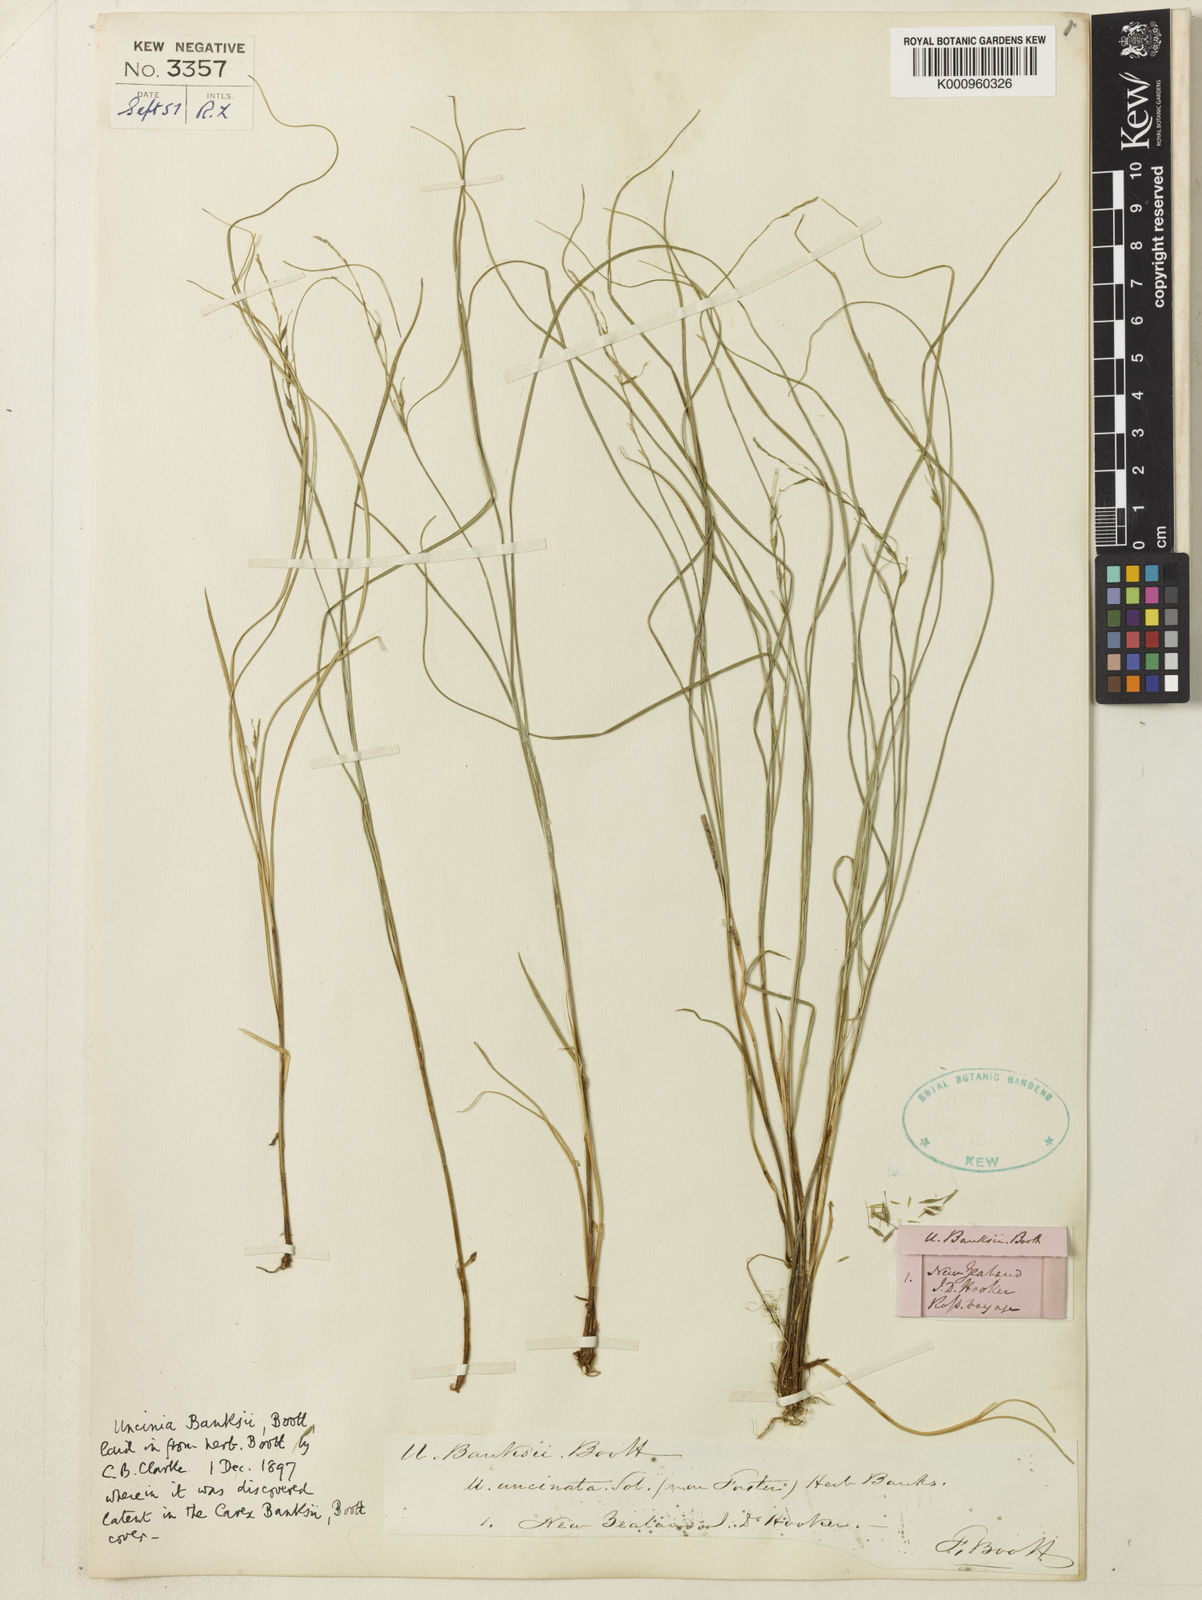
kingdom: Plantae
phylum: Tracheophyta
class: Liliopsida
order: Poales
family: Cyperaceae
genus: Carex
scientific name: Carex umbricola
